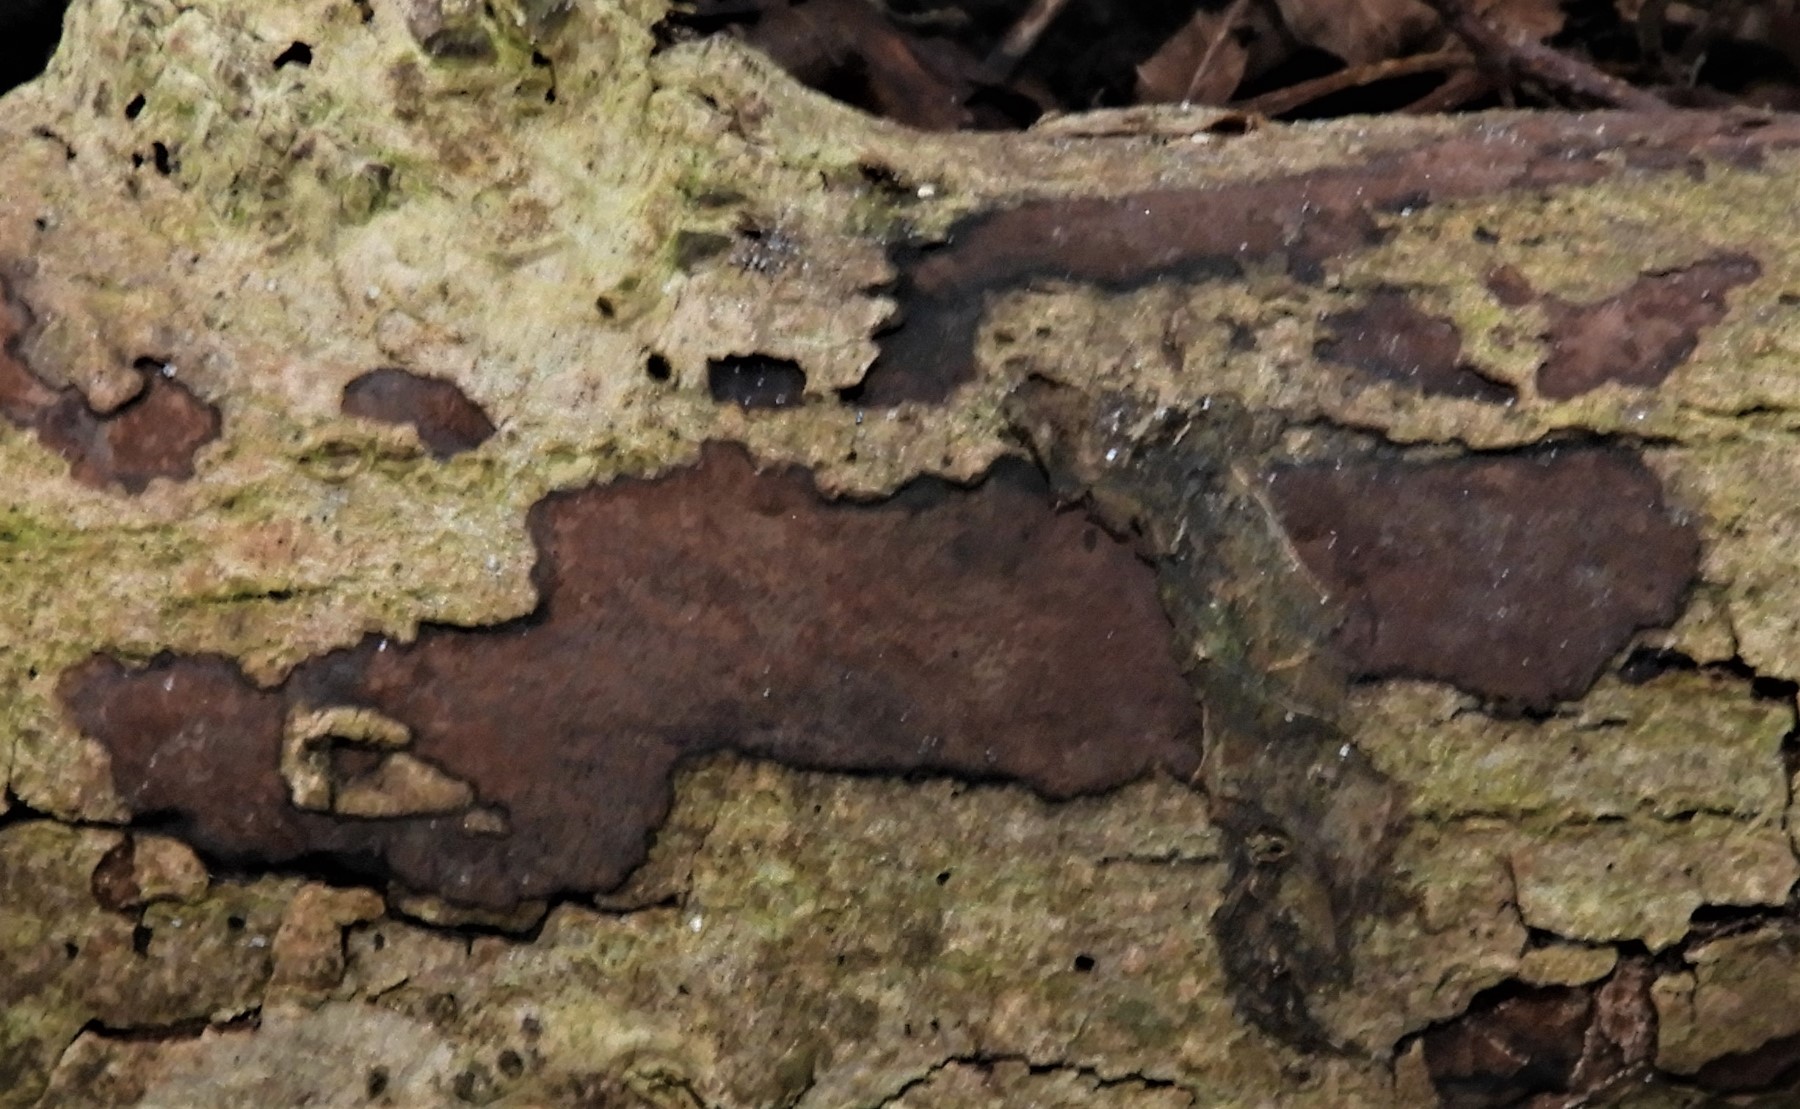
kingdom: Fungi
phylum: Ascomycota
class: Sordariomycetes
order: Xylariales
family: Hypoxylaceae
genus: Hypoxylon
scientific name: Hypoxylon petriniae
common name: nedsænket kulbær
